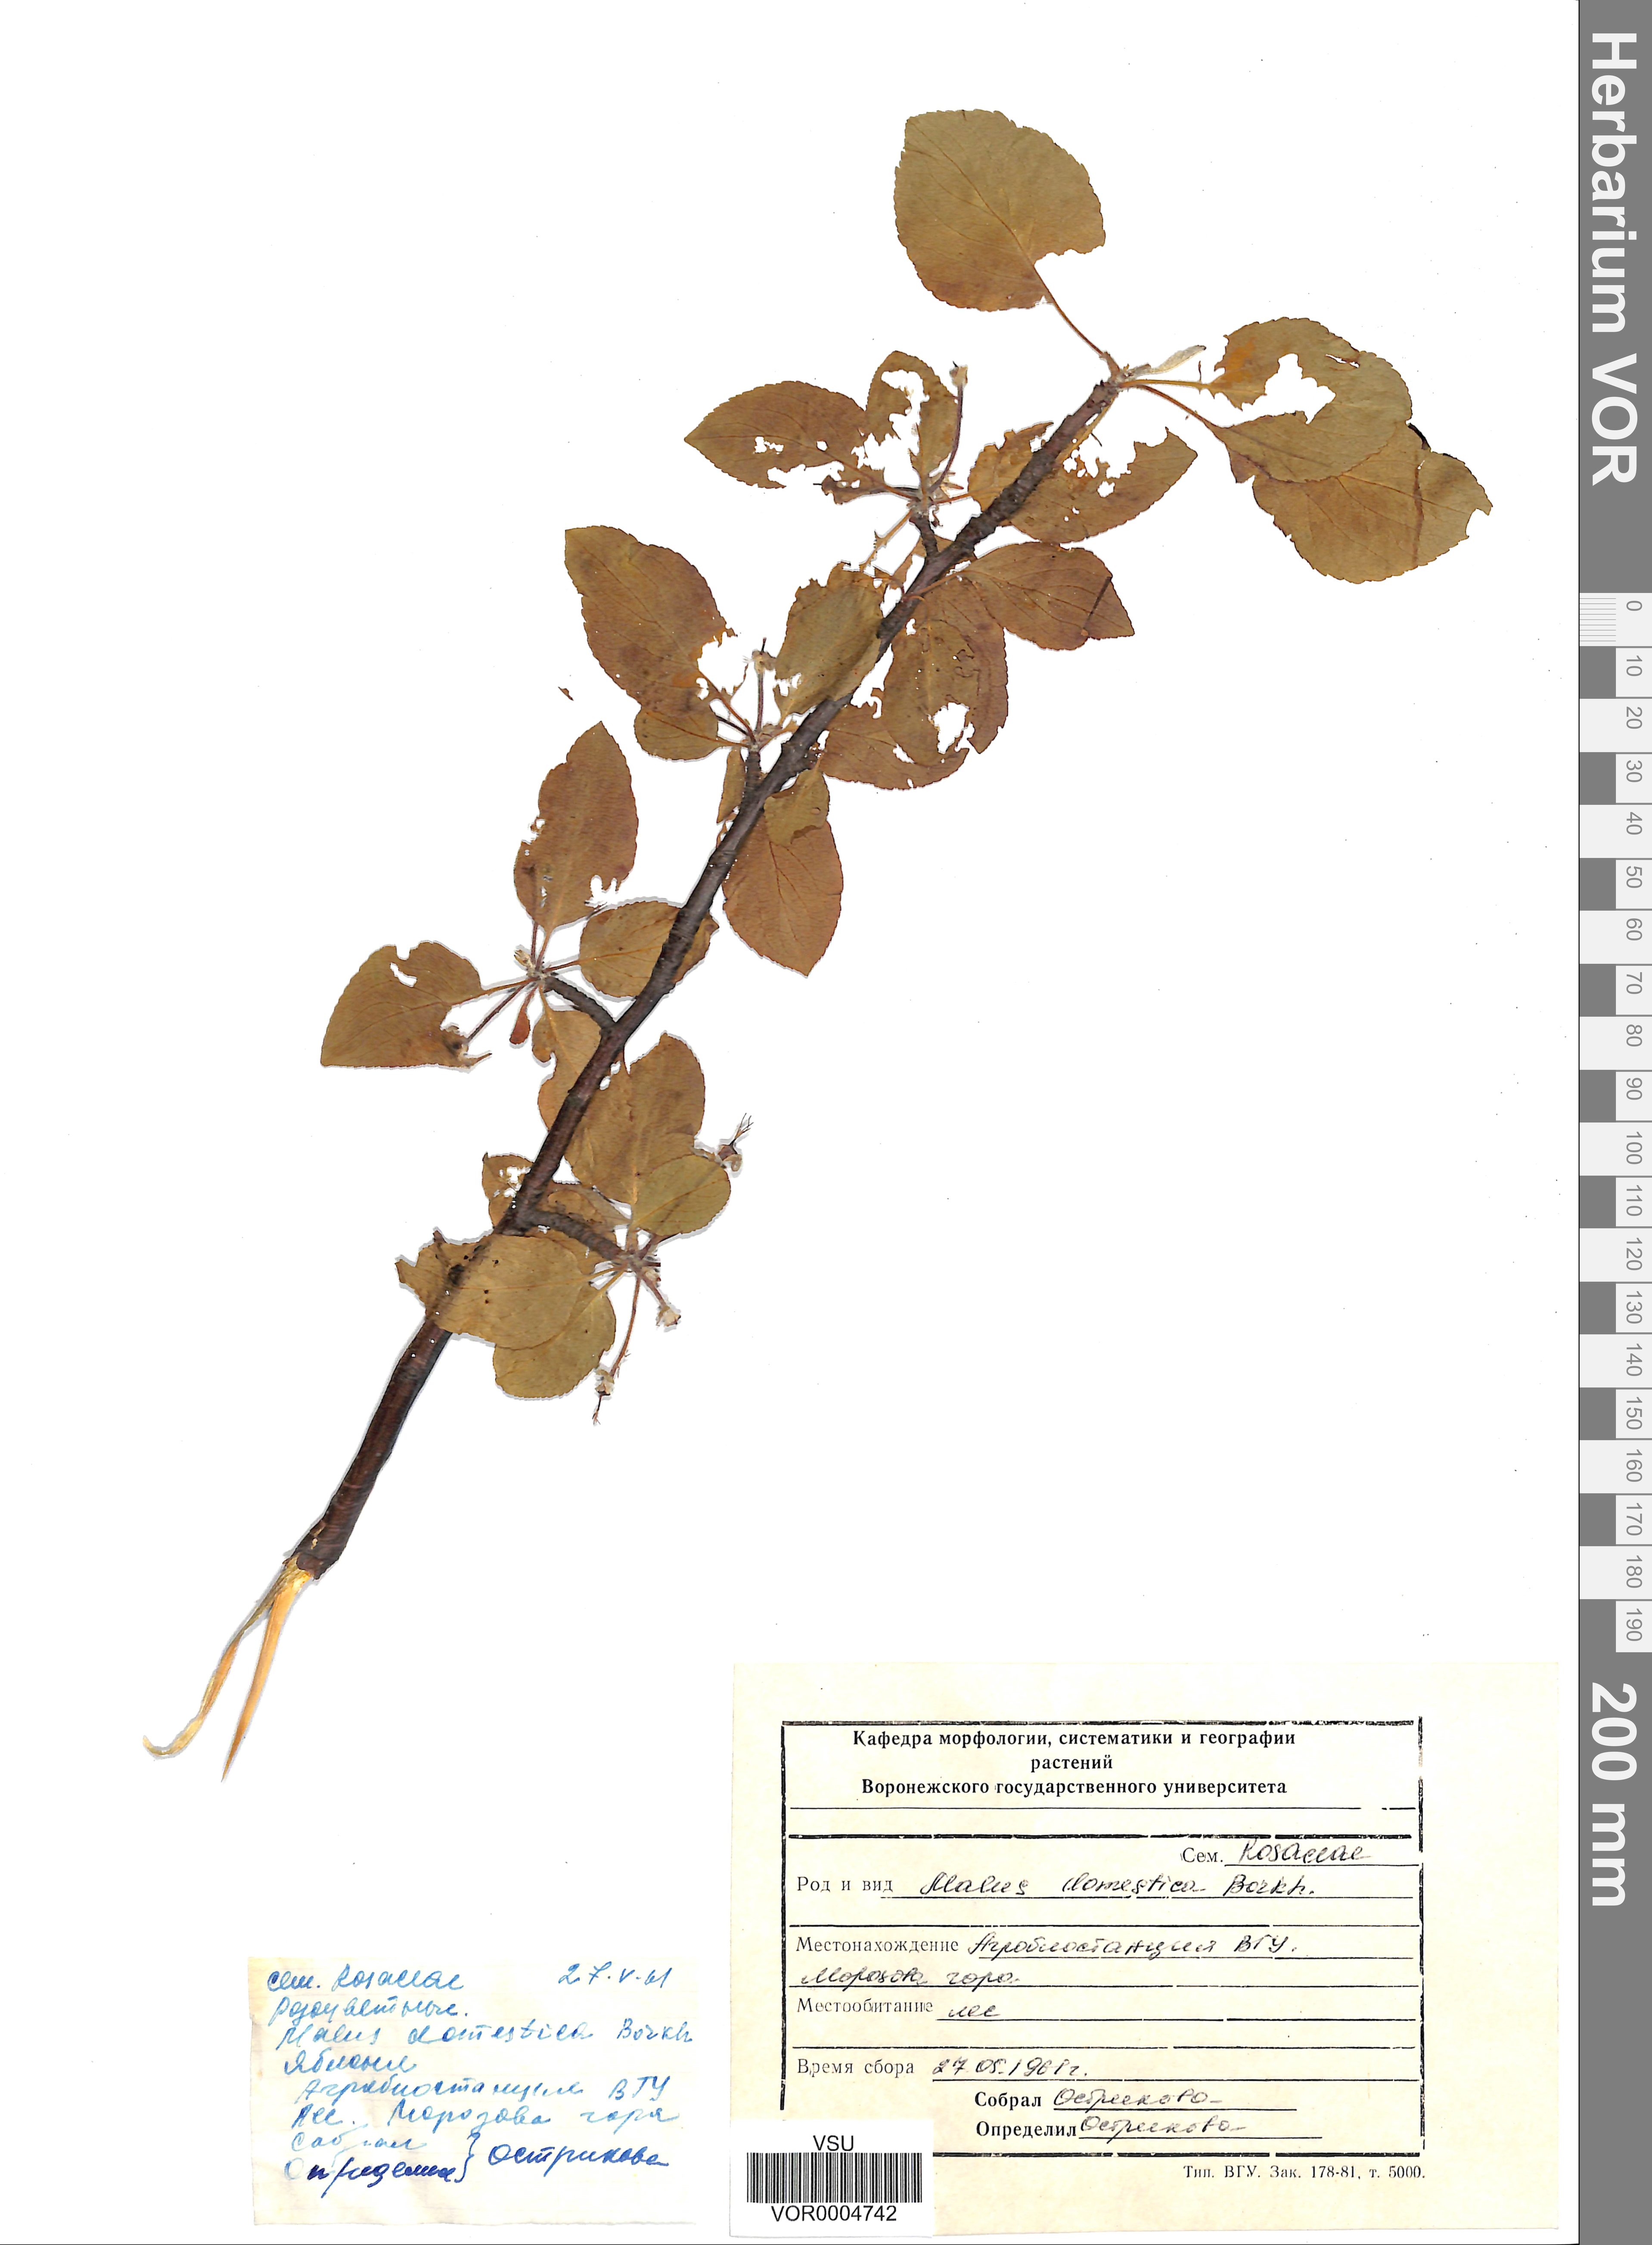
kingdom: Plantae
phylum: Tracheophyta
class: Magnoliopsida
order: Rosales
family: Rosaceae
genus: Malus
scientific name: Malus domestica
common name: Apple
